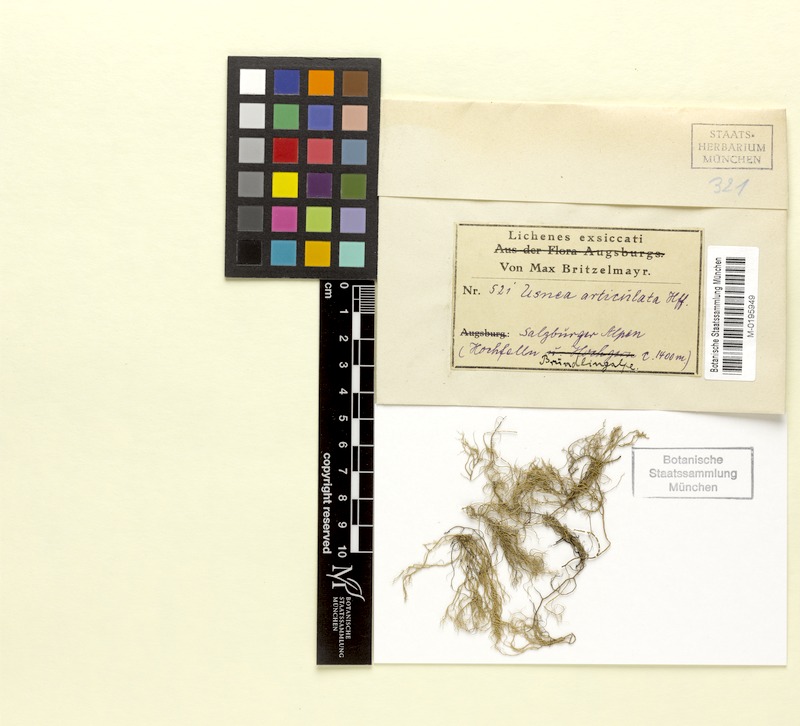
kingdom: Fungi
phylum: Ascomycota
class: Lecanoromycetes
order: Lecanorales
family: Parmeliaceae
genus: Usnea
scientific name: Usnea articulata
